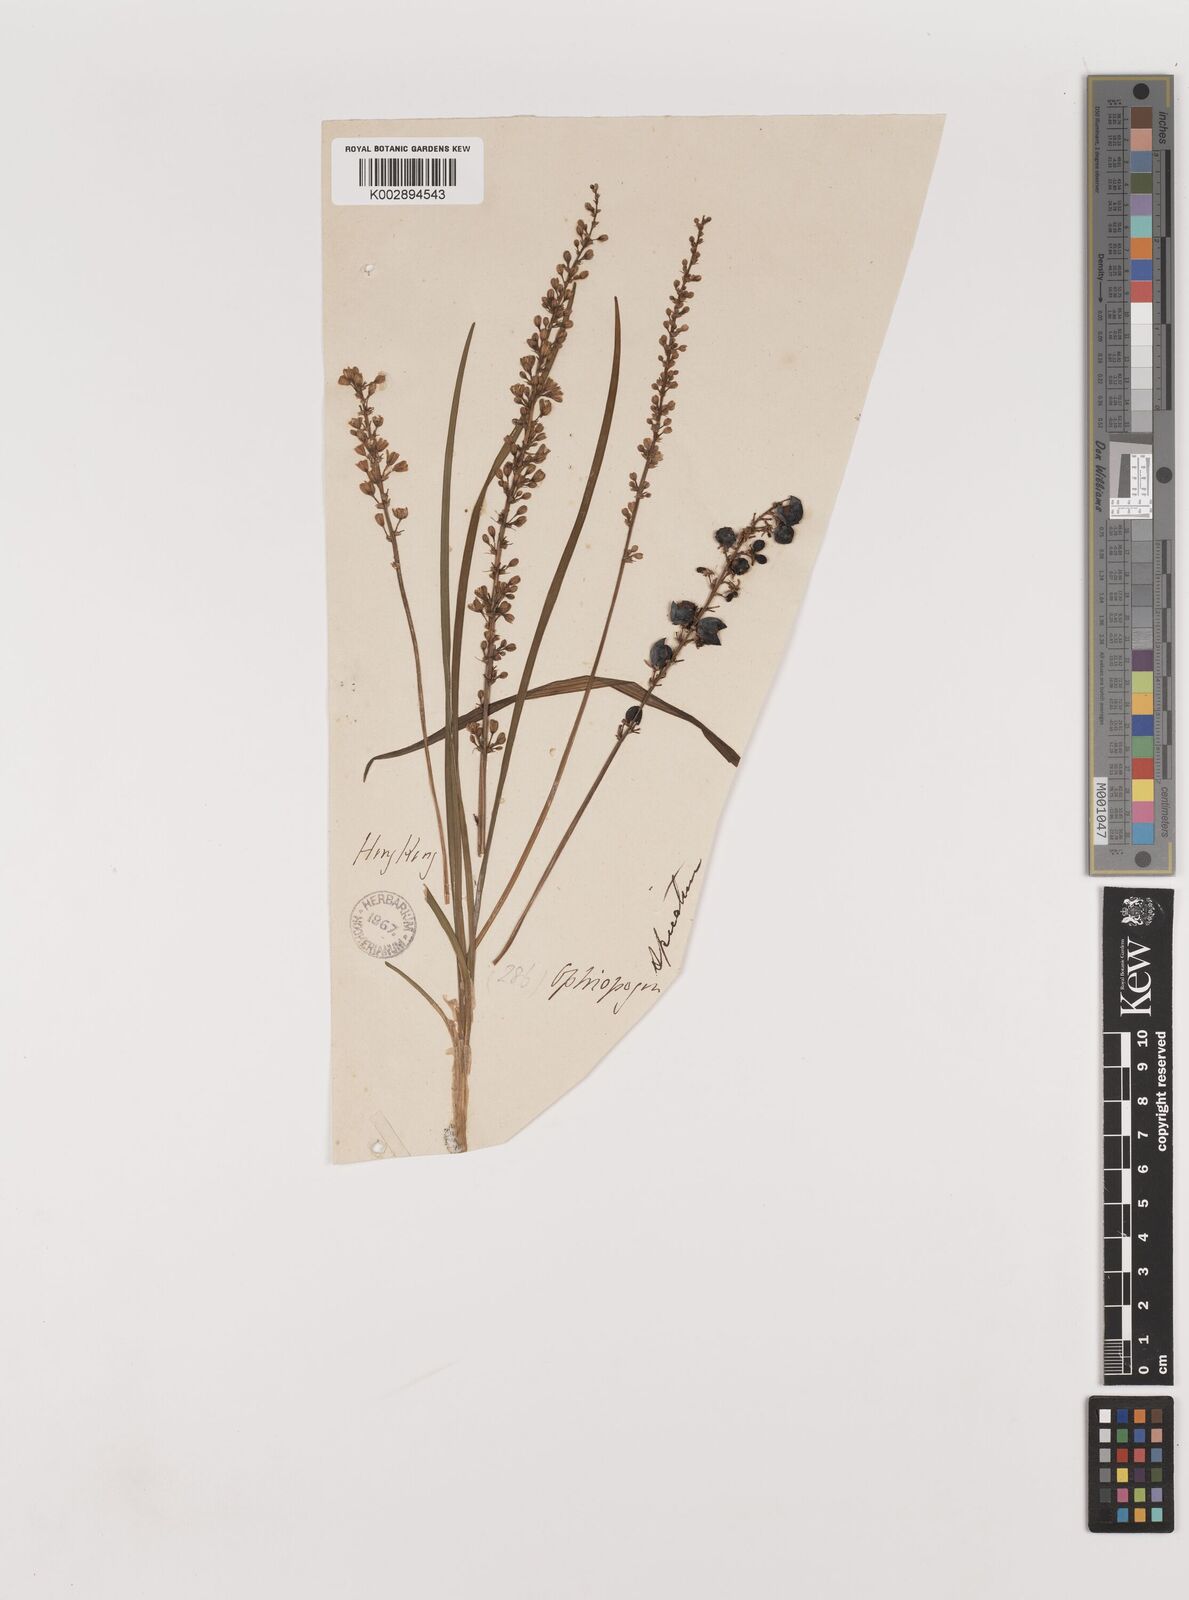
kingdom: Plantae
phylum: Tracheophyta
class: Liliopsida
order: Asparagales
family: Asparagaceae
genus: Liriope
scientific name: Liriope spicata
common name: Creeping liriope
